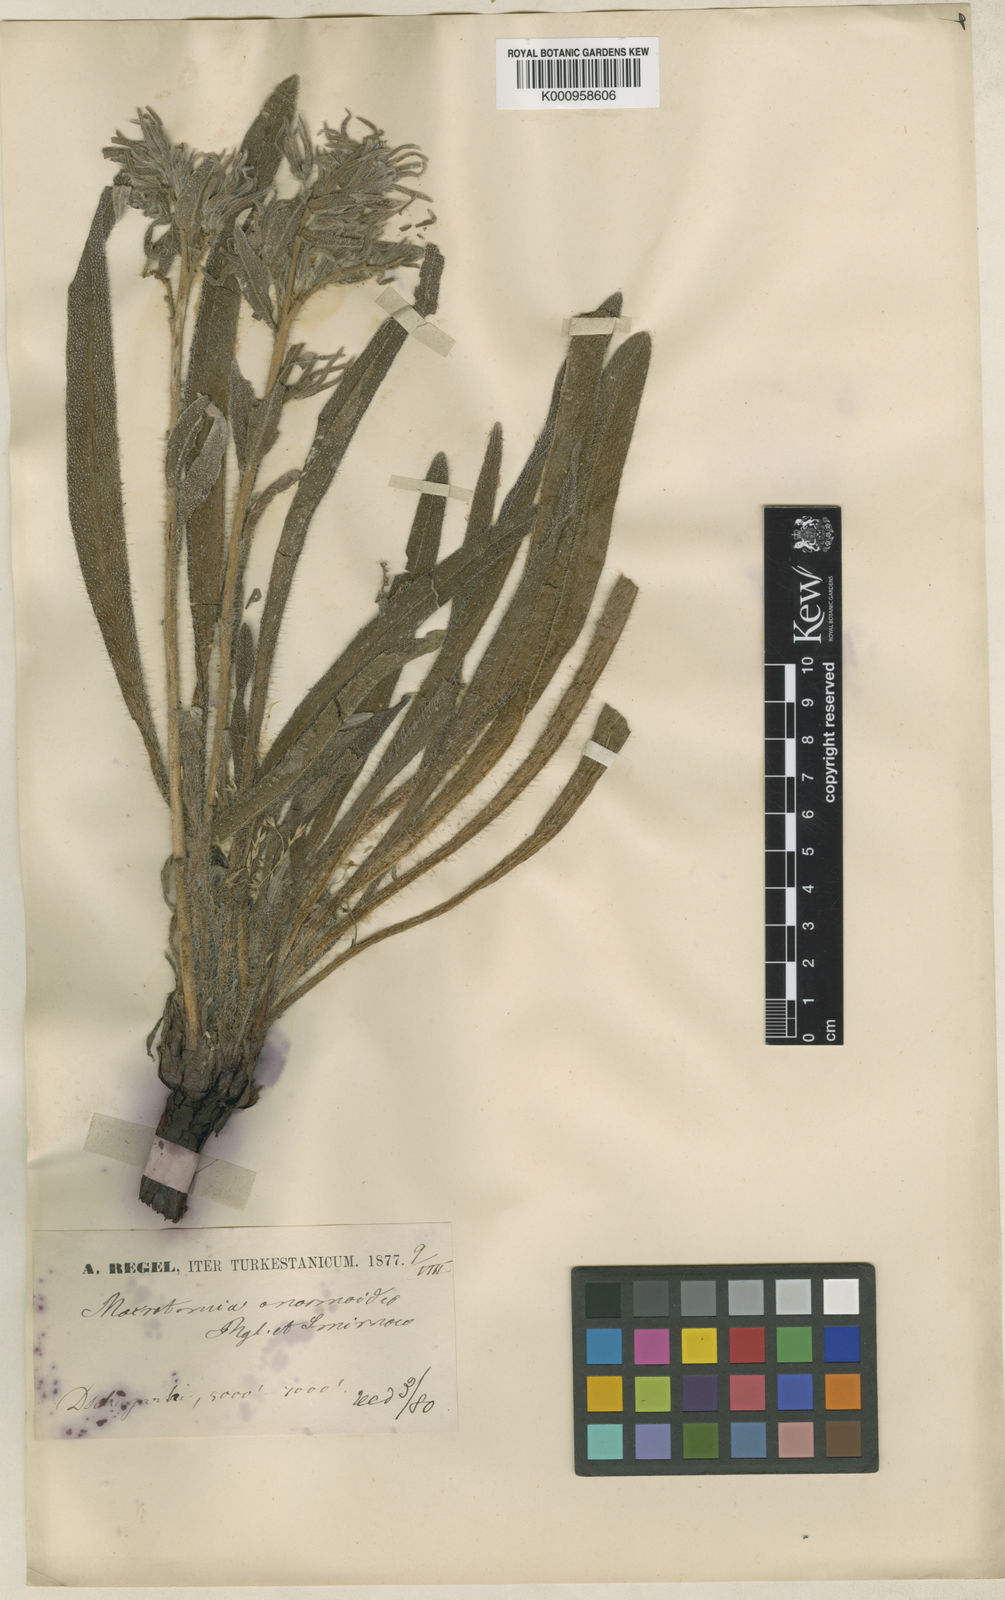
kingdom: Plantae
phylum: Tracheophyta
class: Magnoliopsida
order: Boraginales
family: Boraginaceae
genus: Arnebia
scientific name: Arnebia
